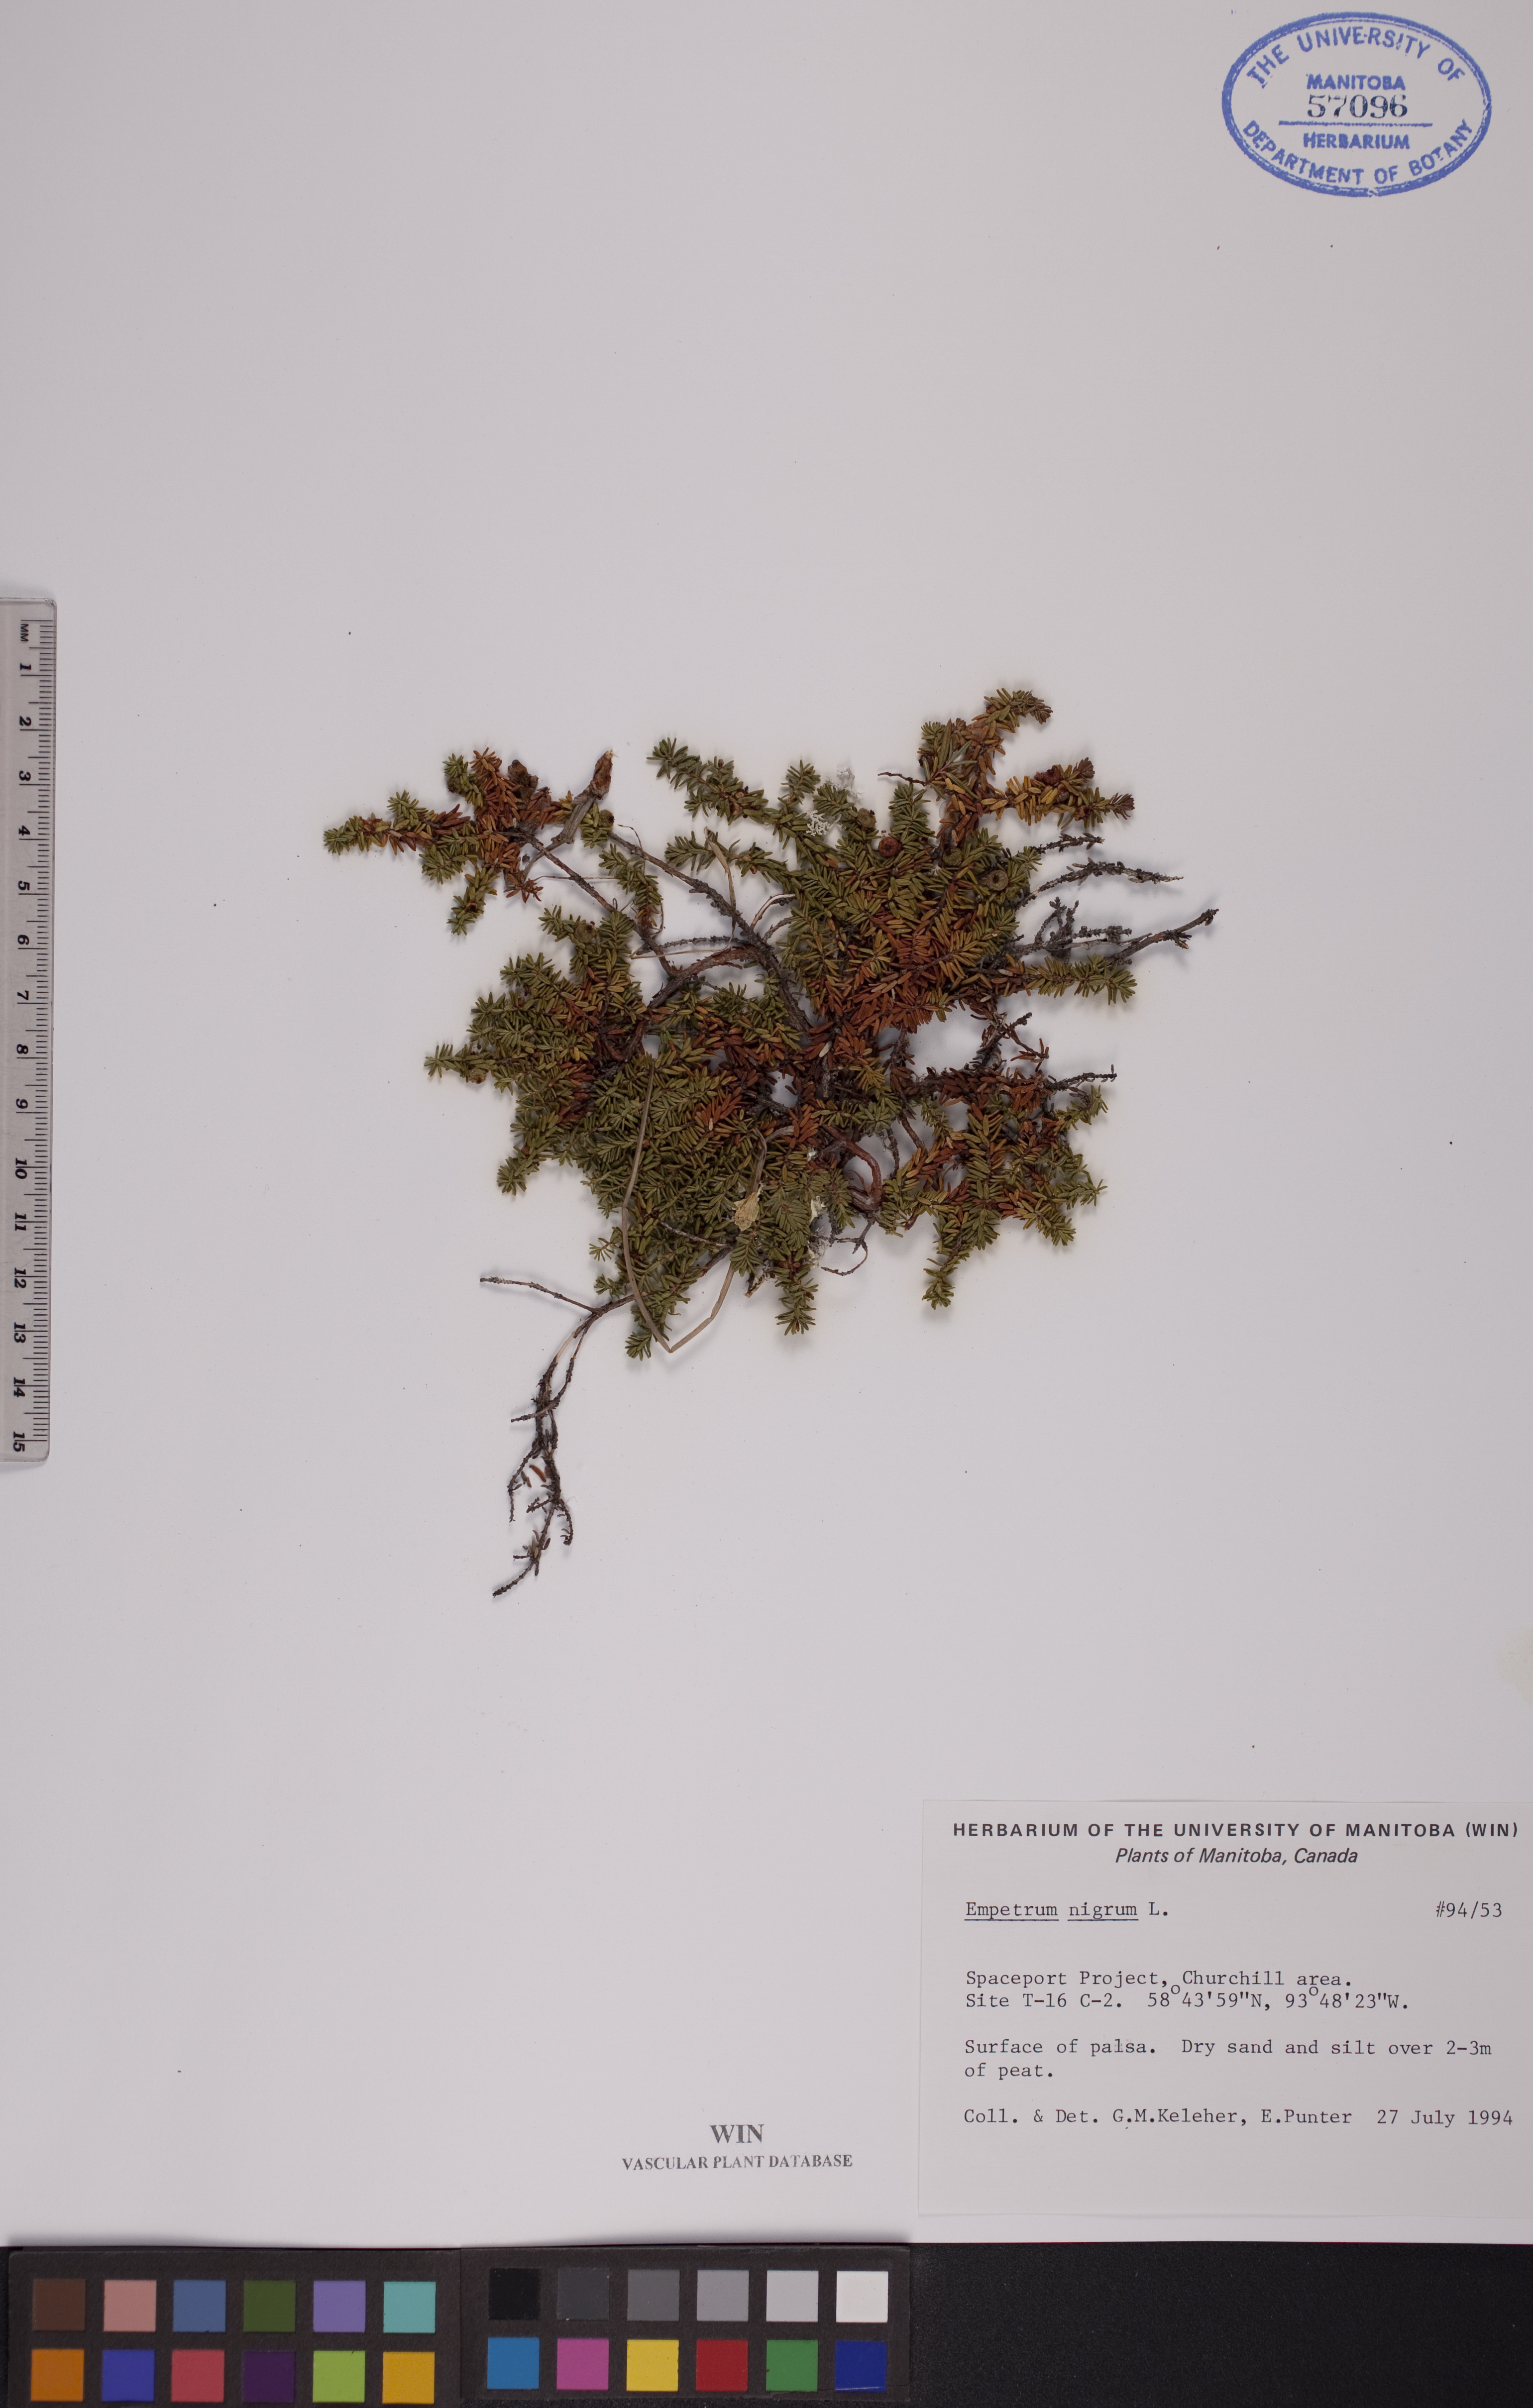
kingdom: Plantae
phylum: Tracheophyta
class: Magnoliopsida
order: Ericales
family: Ericaceae
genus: Empetrum
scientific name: Empetrum nigrum
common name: Black crowberry
